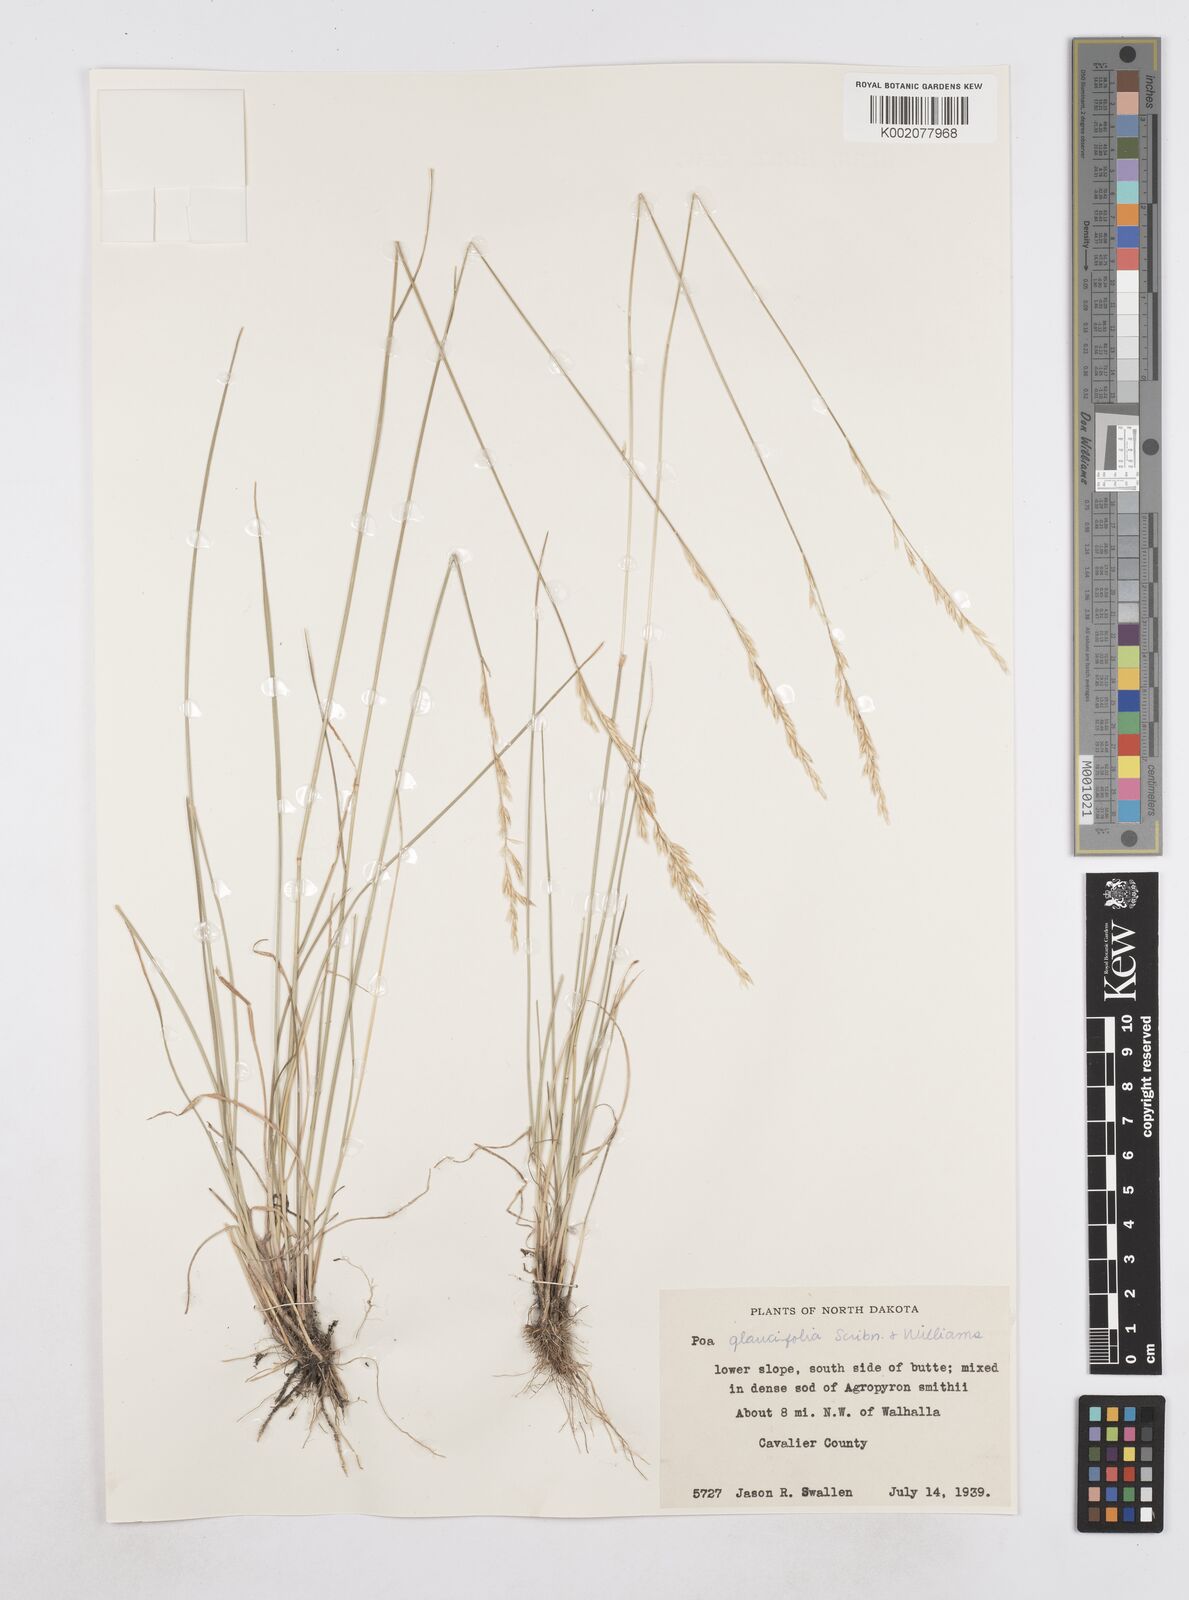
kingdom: Plantae
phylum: Tracheophyta
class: Liliopsida
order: Poales
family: Poaceae
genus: Poa
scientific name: Poa arida
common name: Plains bluegrass
